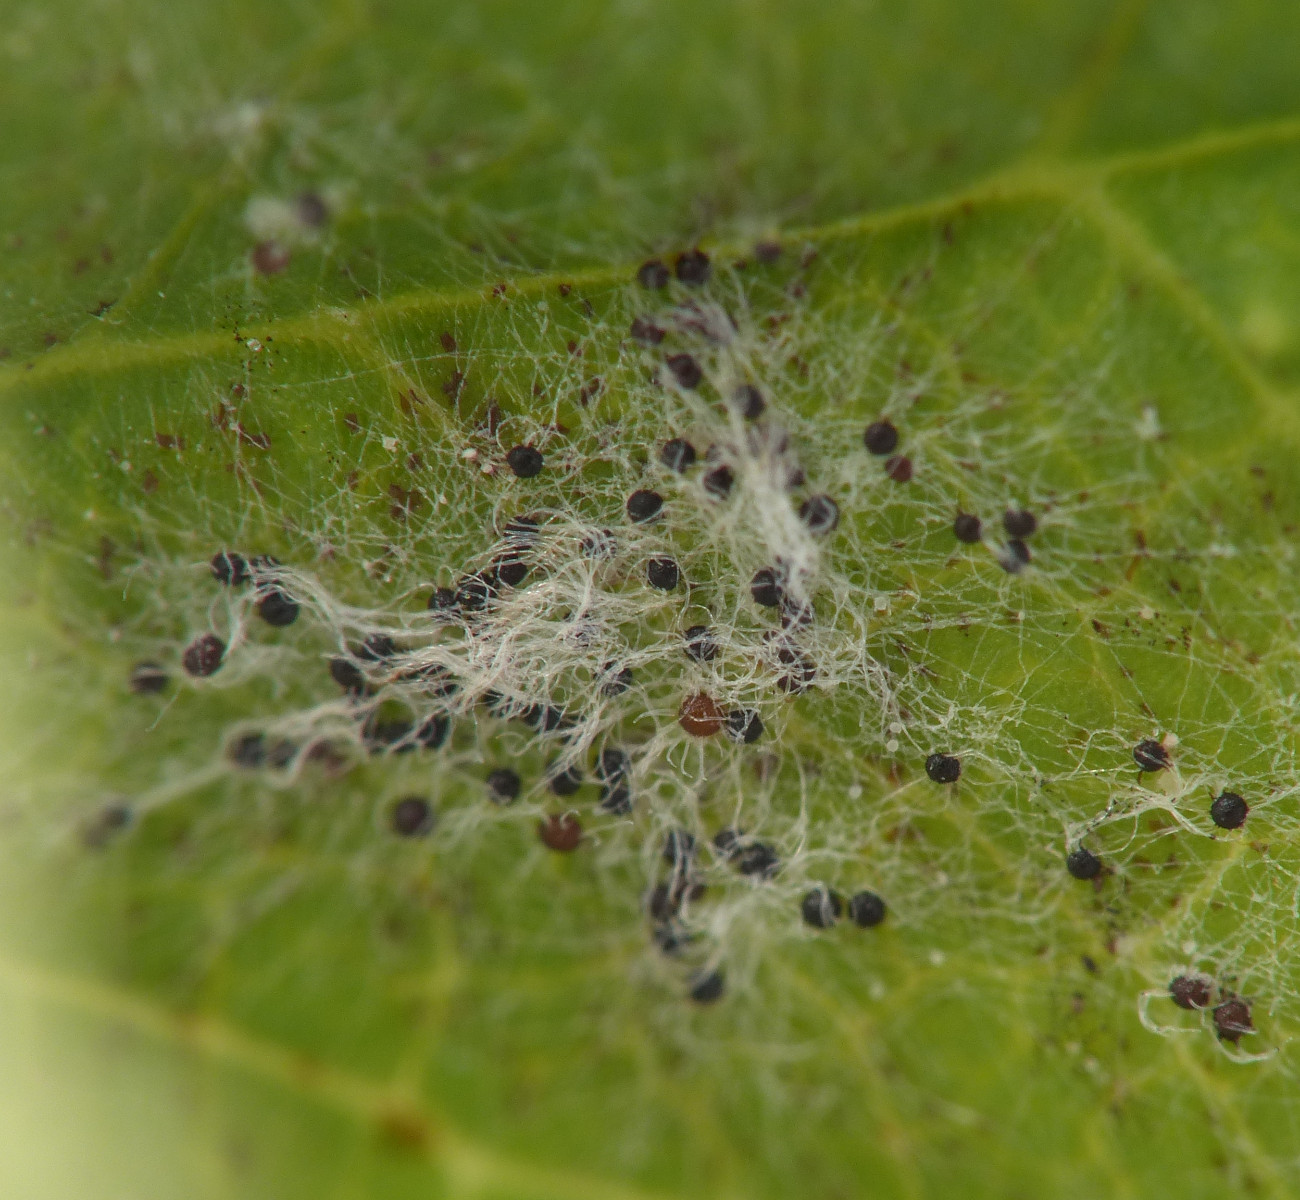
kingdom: Fungi
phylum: Ascomycota
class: Leotiomycetes
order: Helotiales
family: Erysiphaceae
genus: Erysiphe
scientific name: Erysiphe astragali
